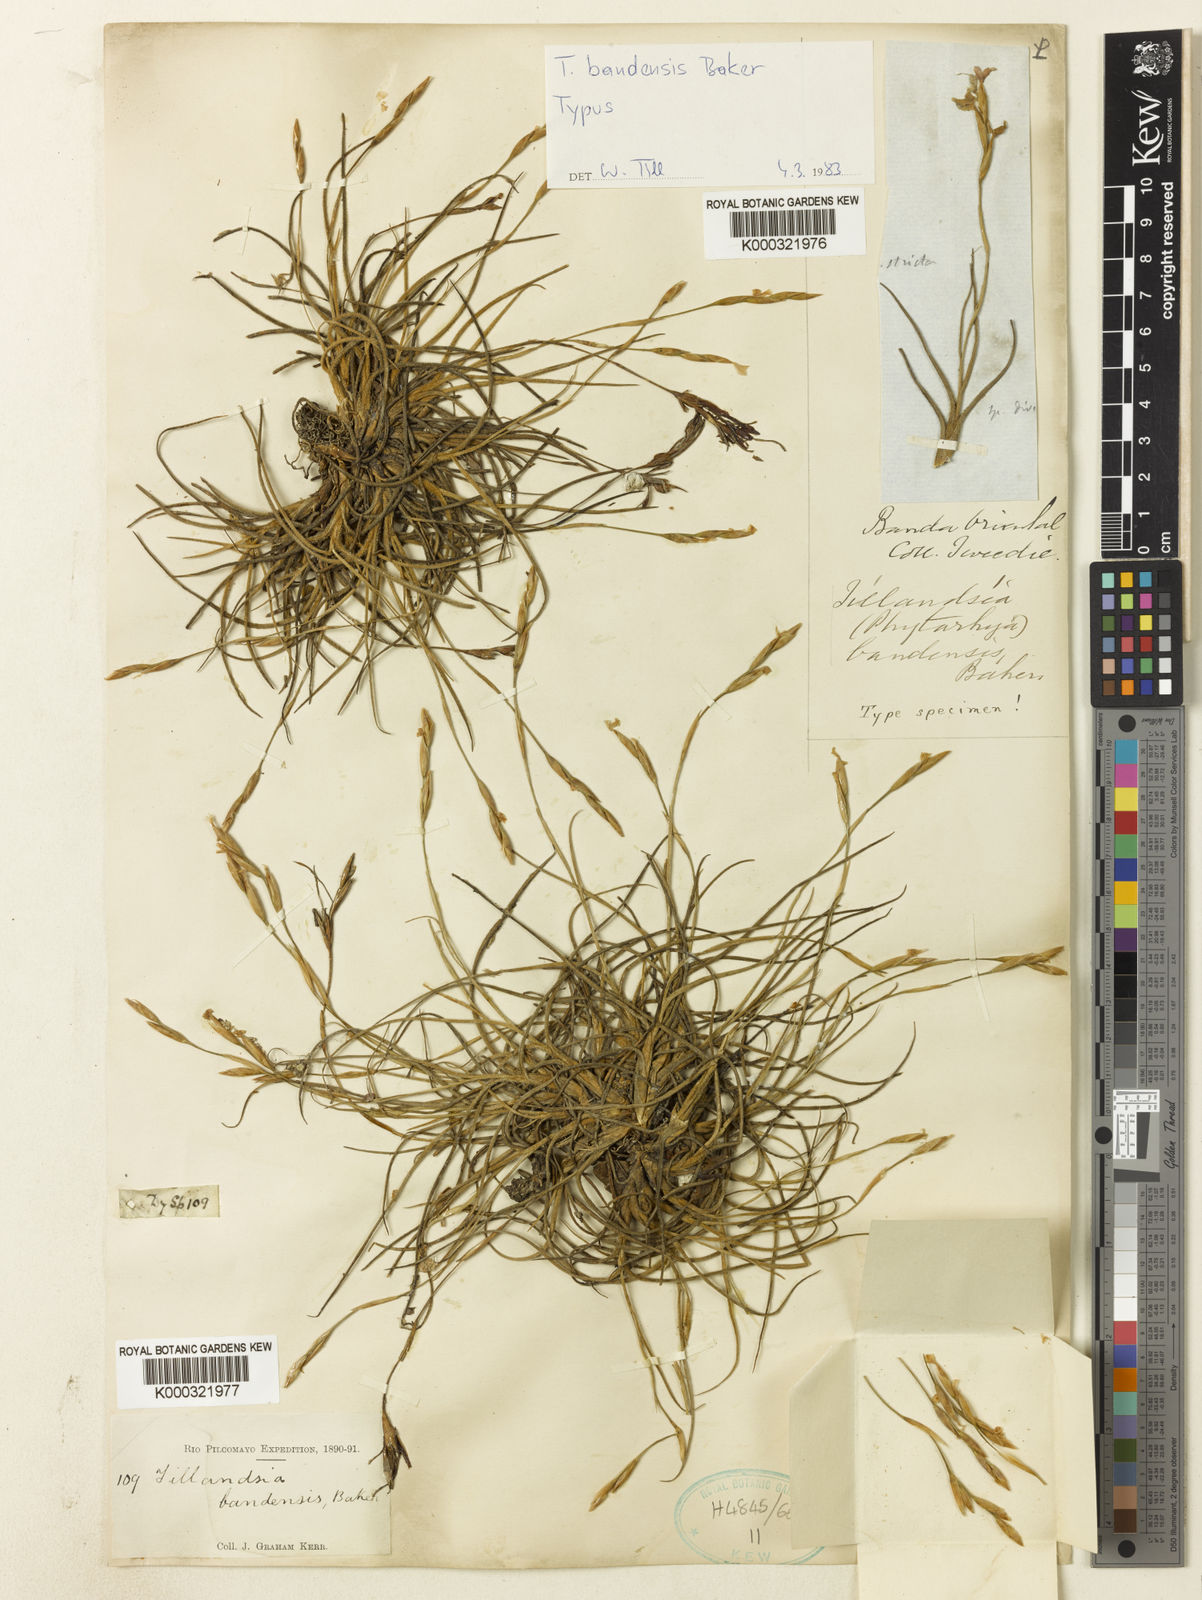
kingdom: Plantae
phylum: Tracheophyta
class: Liliopsida
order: Poales
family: Bromeliaceae
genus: Tillandsia
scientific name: Tillandsia bandensis
